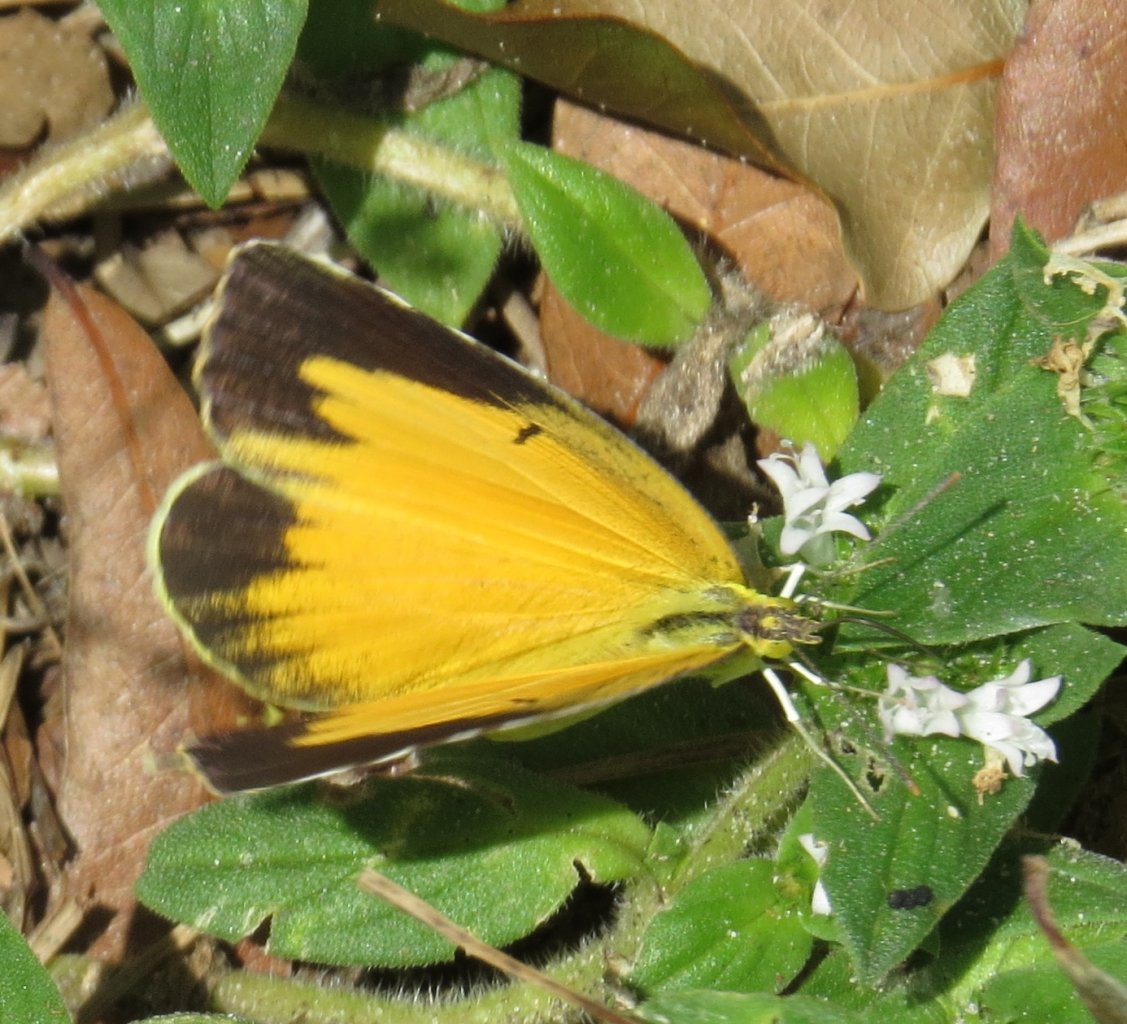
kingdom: Animalia
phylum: Arthropoda
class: Insecta
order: Lepidoptera
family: Pieridae
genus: Abaeis
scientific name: Abaeis nicippe
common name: Sleepy Orange
